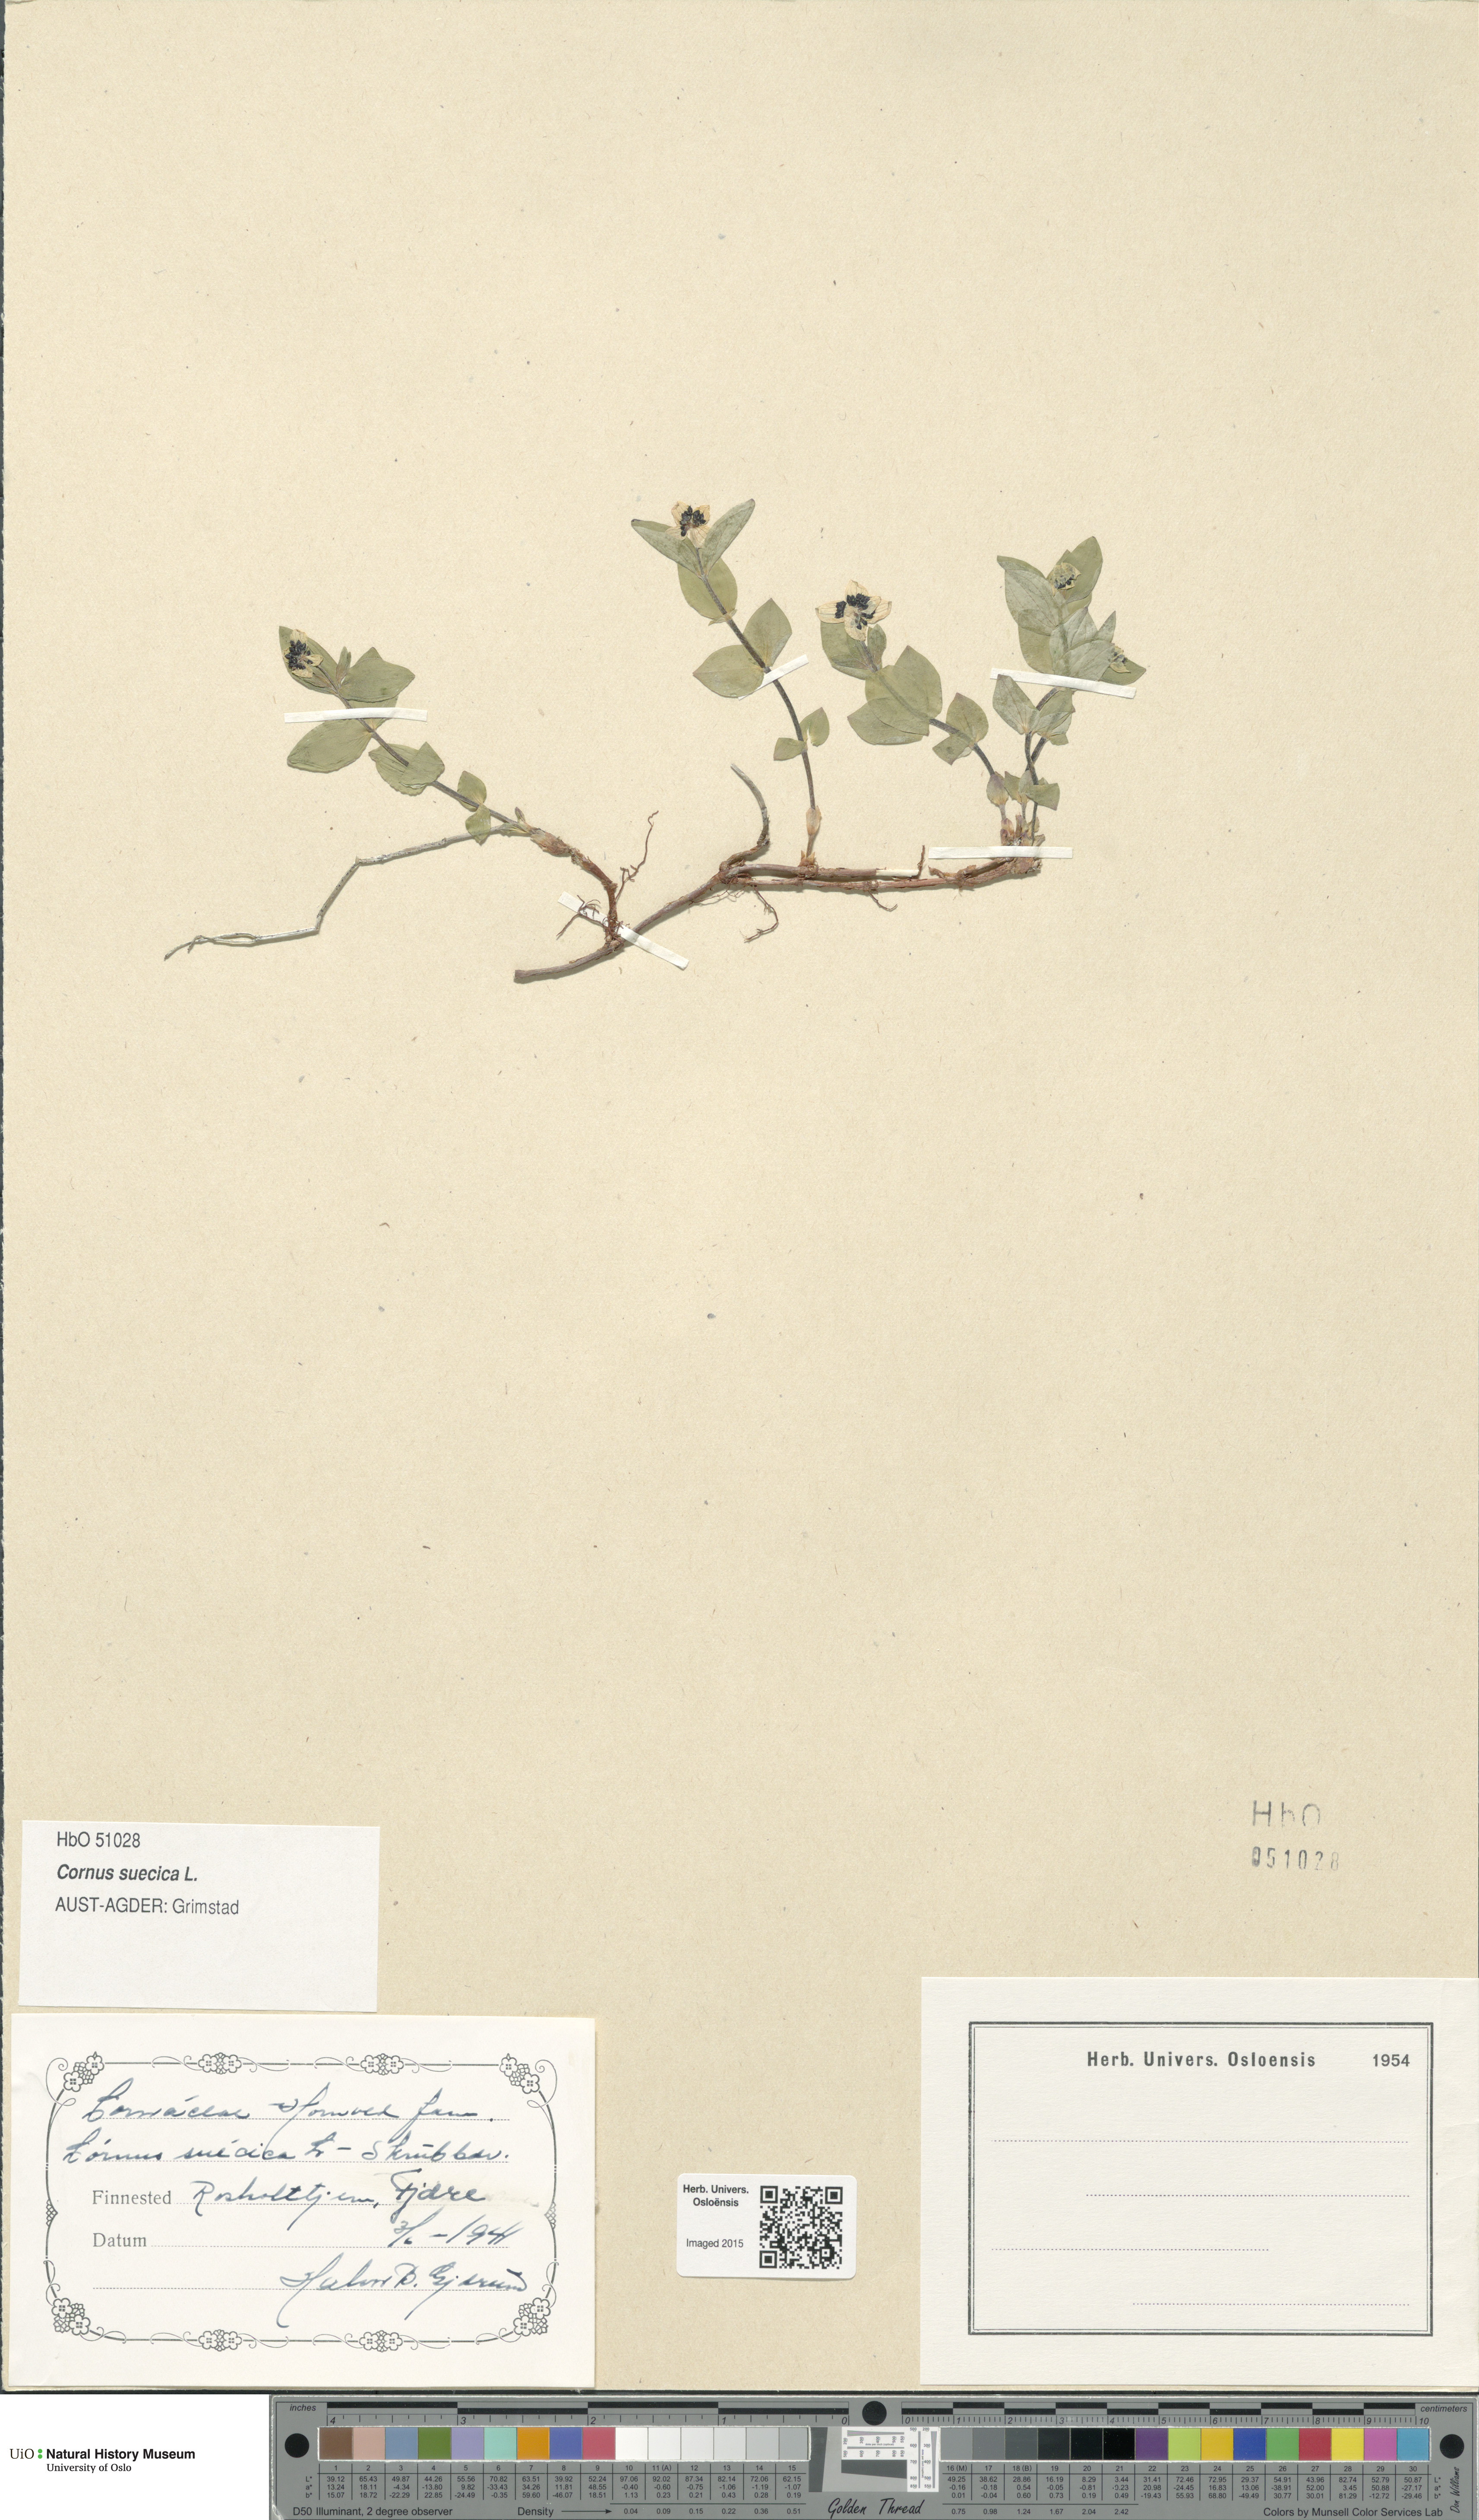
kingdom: Plantae
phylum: Tracheophyta
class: Magnoliopsida
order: Cornales
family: Cornaceae
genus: Cornus
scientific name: Cornus suecica
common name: Dwarf cornel
